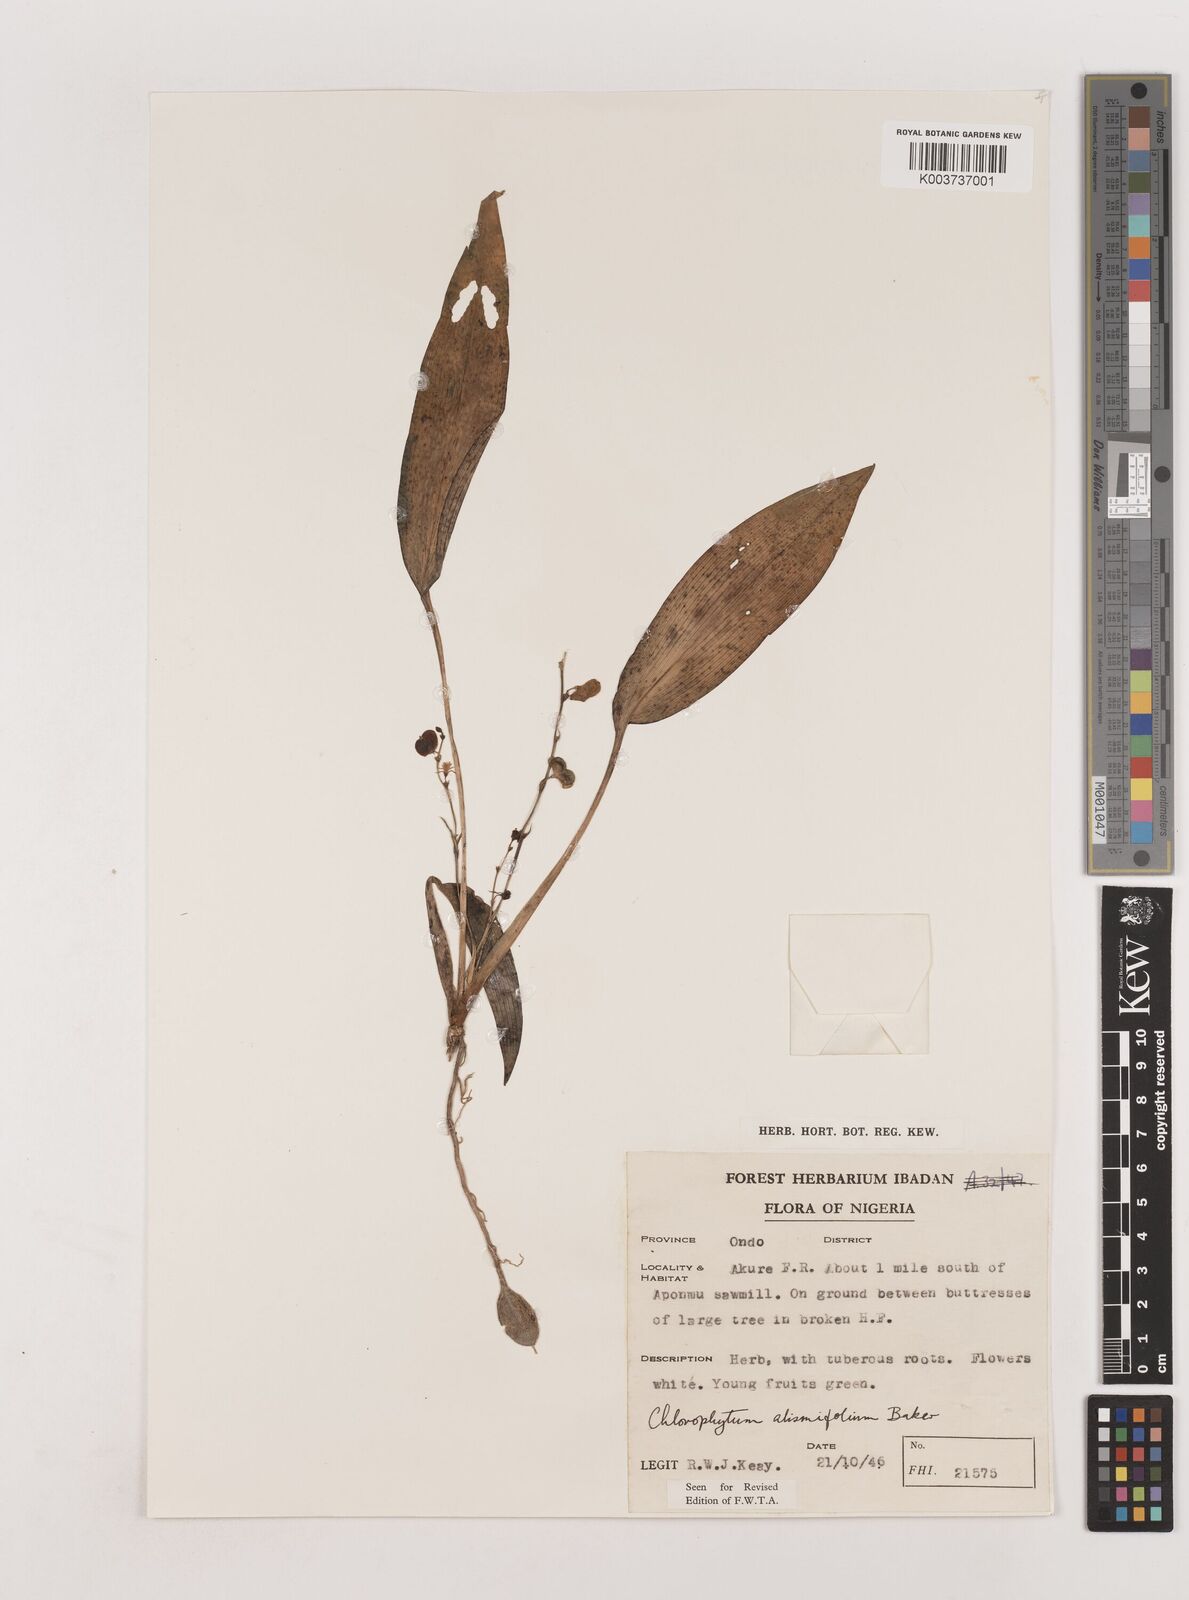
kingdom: Plantae
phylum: Tracheophyta
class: Liliopsida
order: Asparagales
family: Asparagaceae
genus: Chlorophytum
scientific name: Chlorophytum alismifolium
